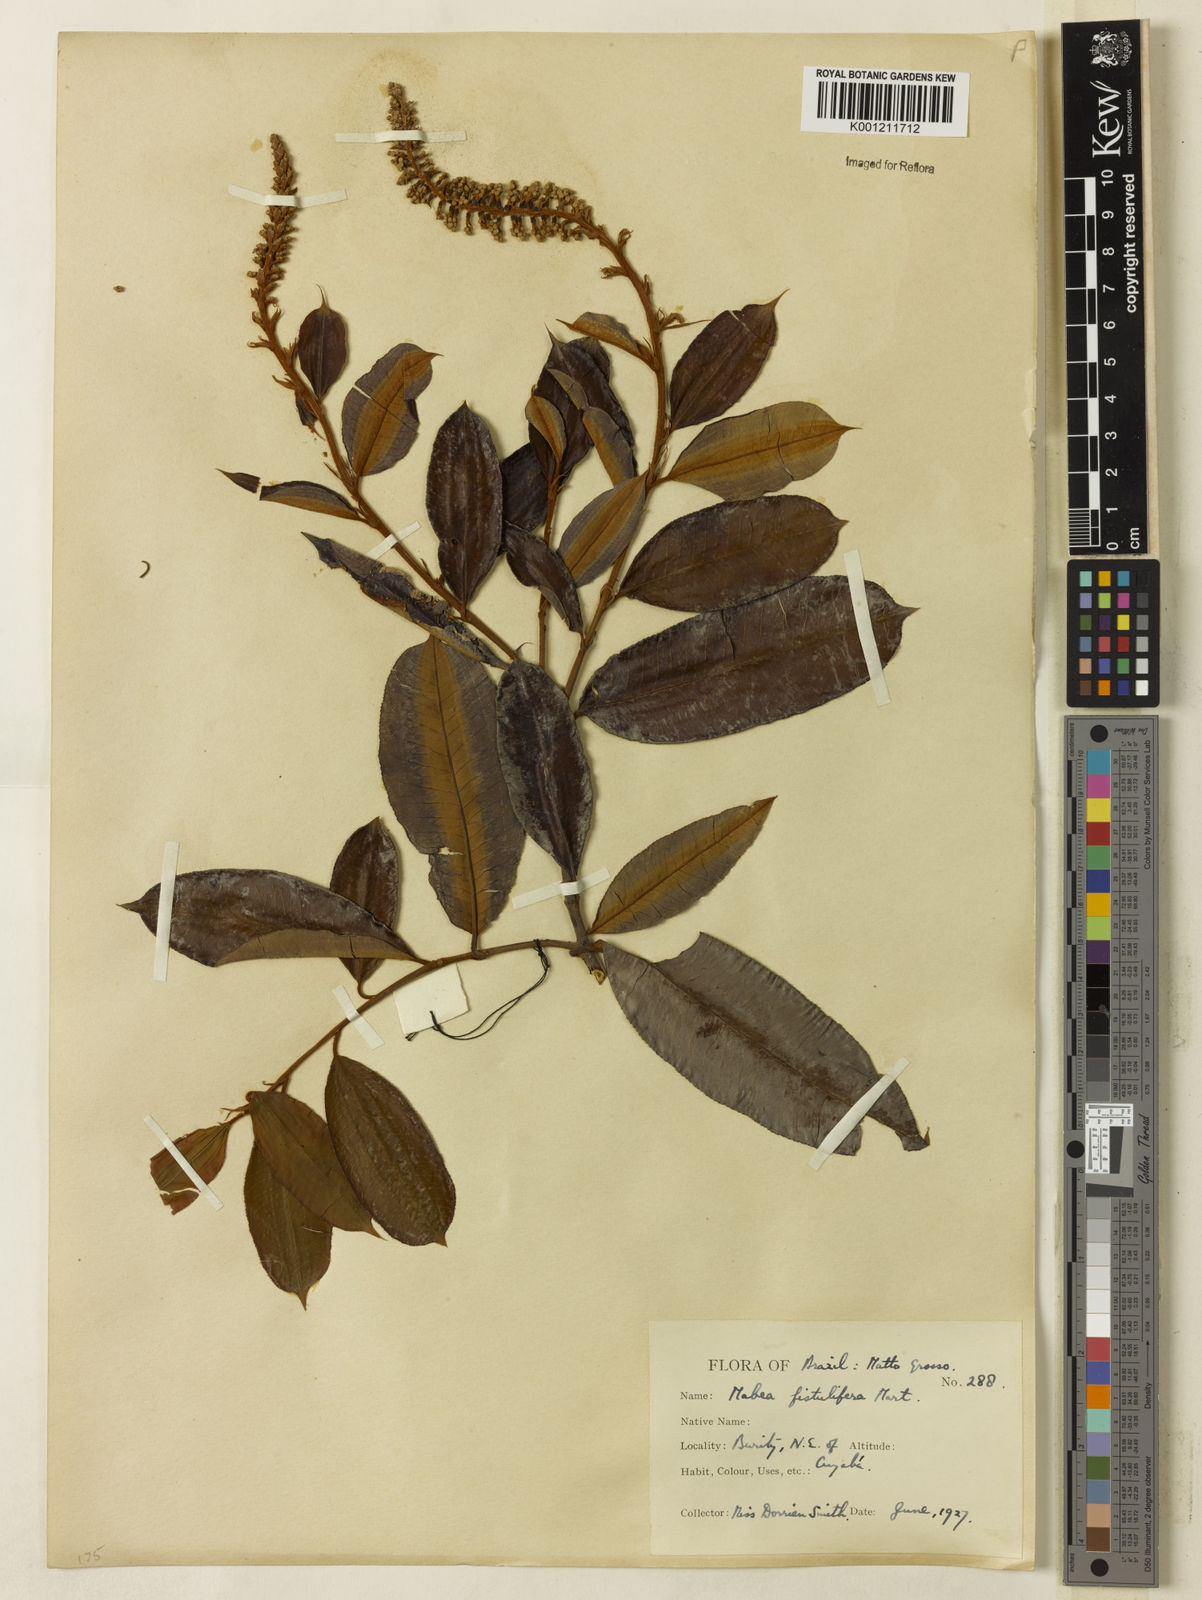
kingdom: Plantae
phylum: Tracheophyta
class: Magnoliopsida
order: Malpighiales
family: Euphorbiaceae
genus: Mabea
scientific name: Mabea fistulifera
